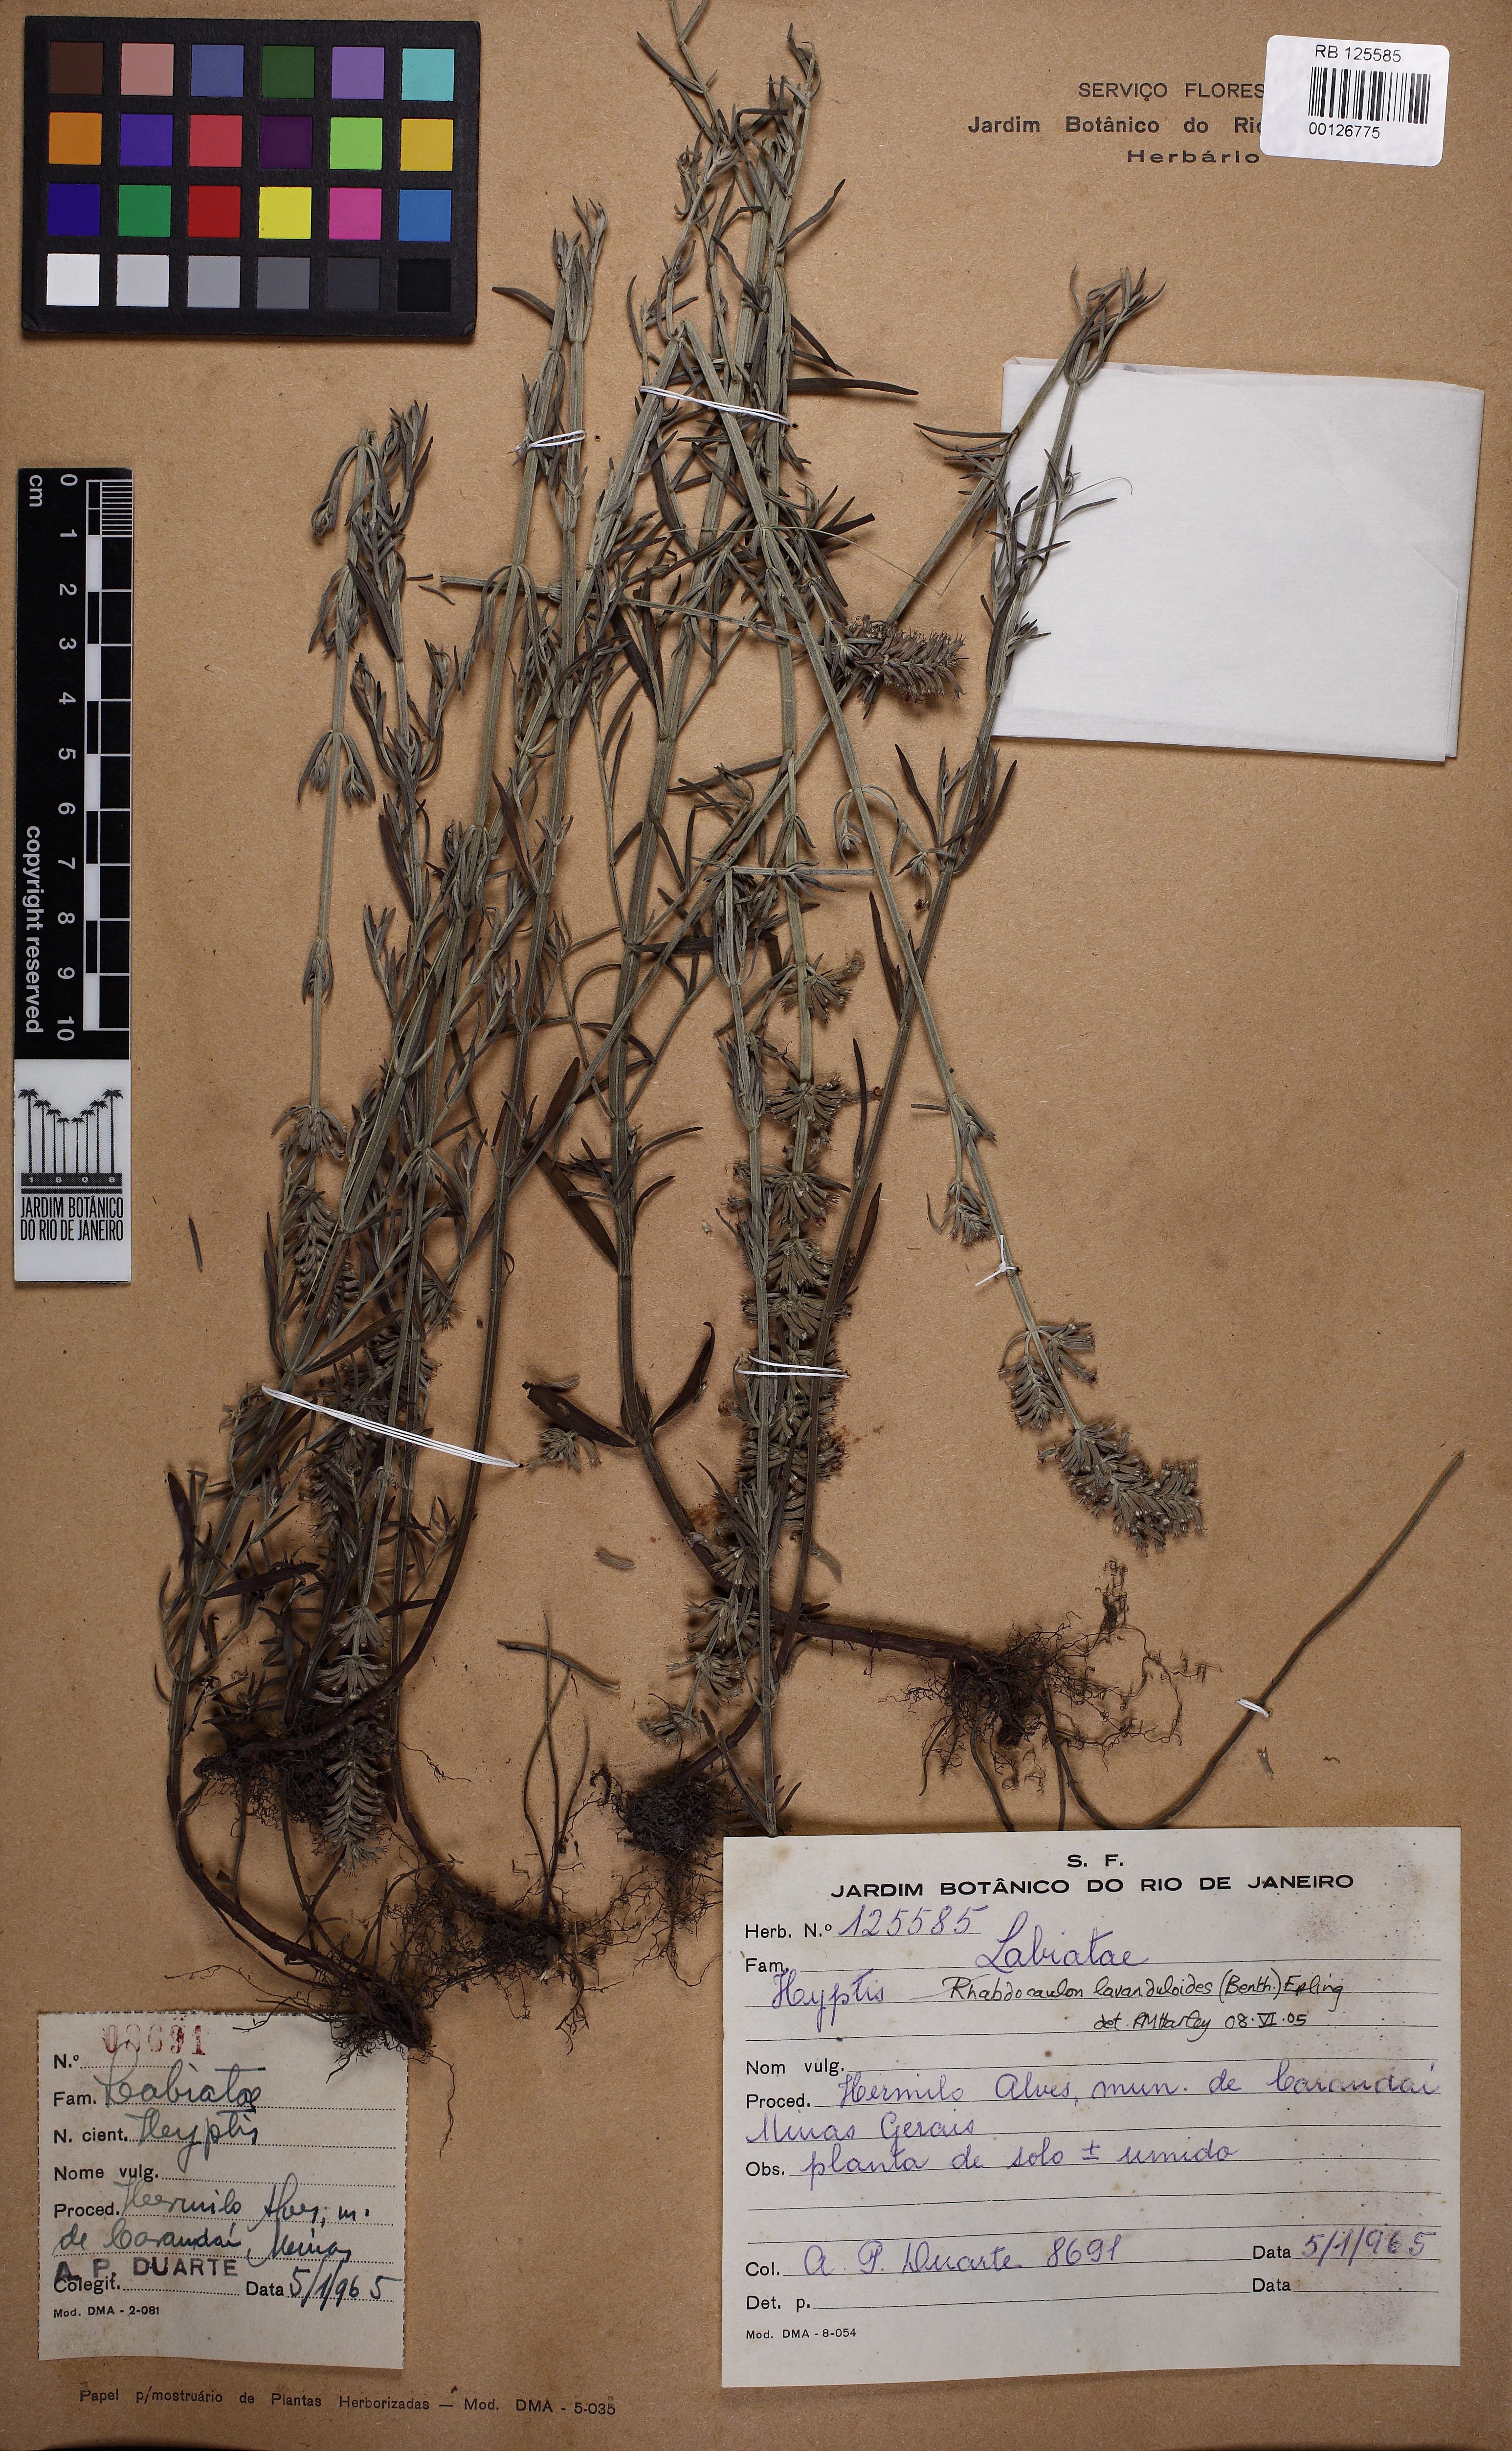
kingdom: Plantae
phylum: Tracheophyta
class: Magnoliopsida
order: Lamiales
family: Lamiaceae
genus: Rhabdocaulon
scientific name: Rhabdocaulon lavanduloides
